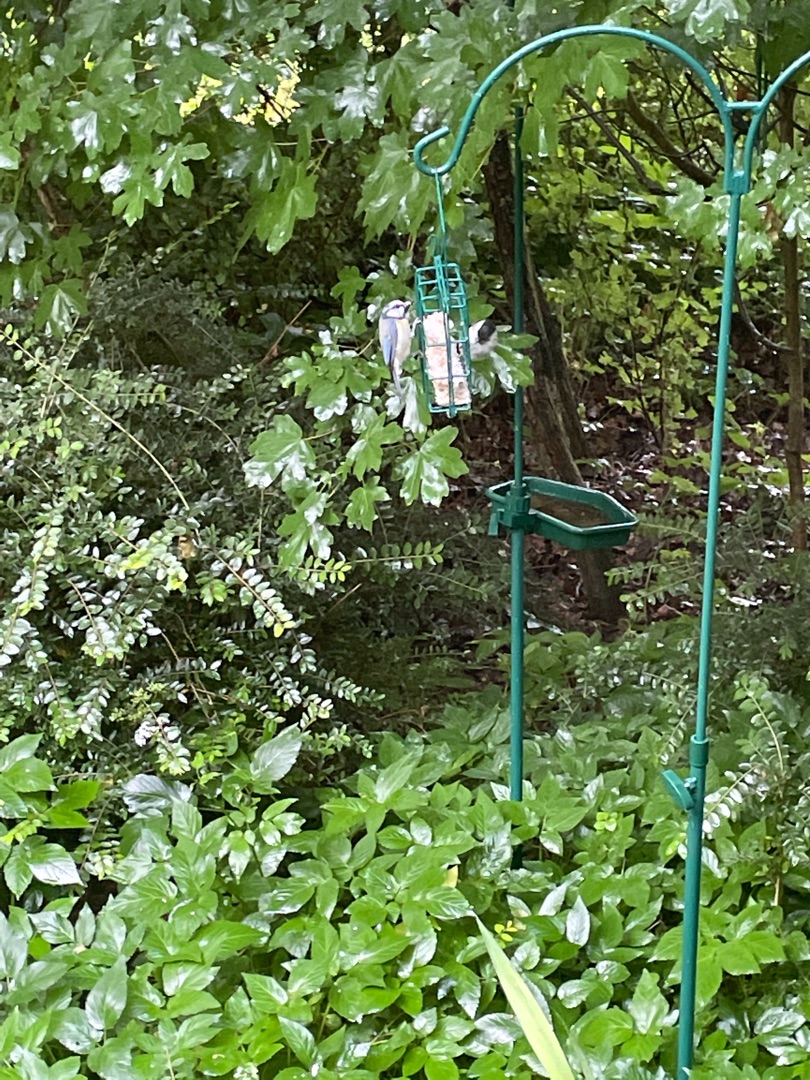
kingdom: Animalia
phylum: Chordata
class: Aves
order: Passeriformes
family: Paridae
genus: Cyanistes
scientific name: Cyanistes caeruleus
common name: Blåmejse
